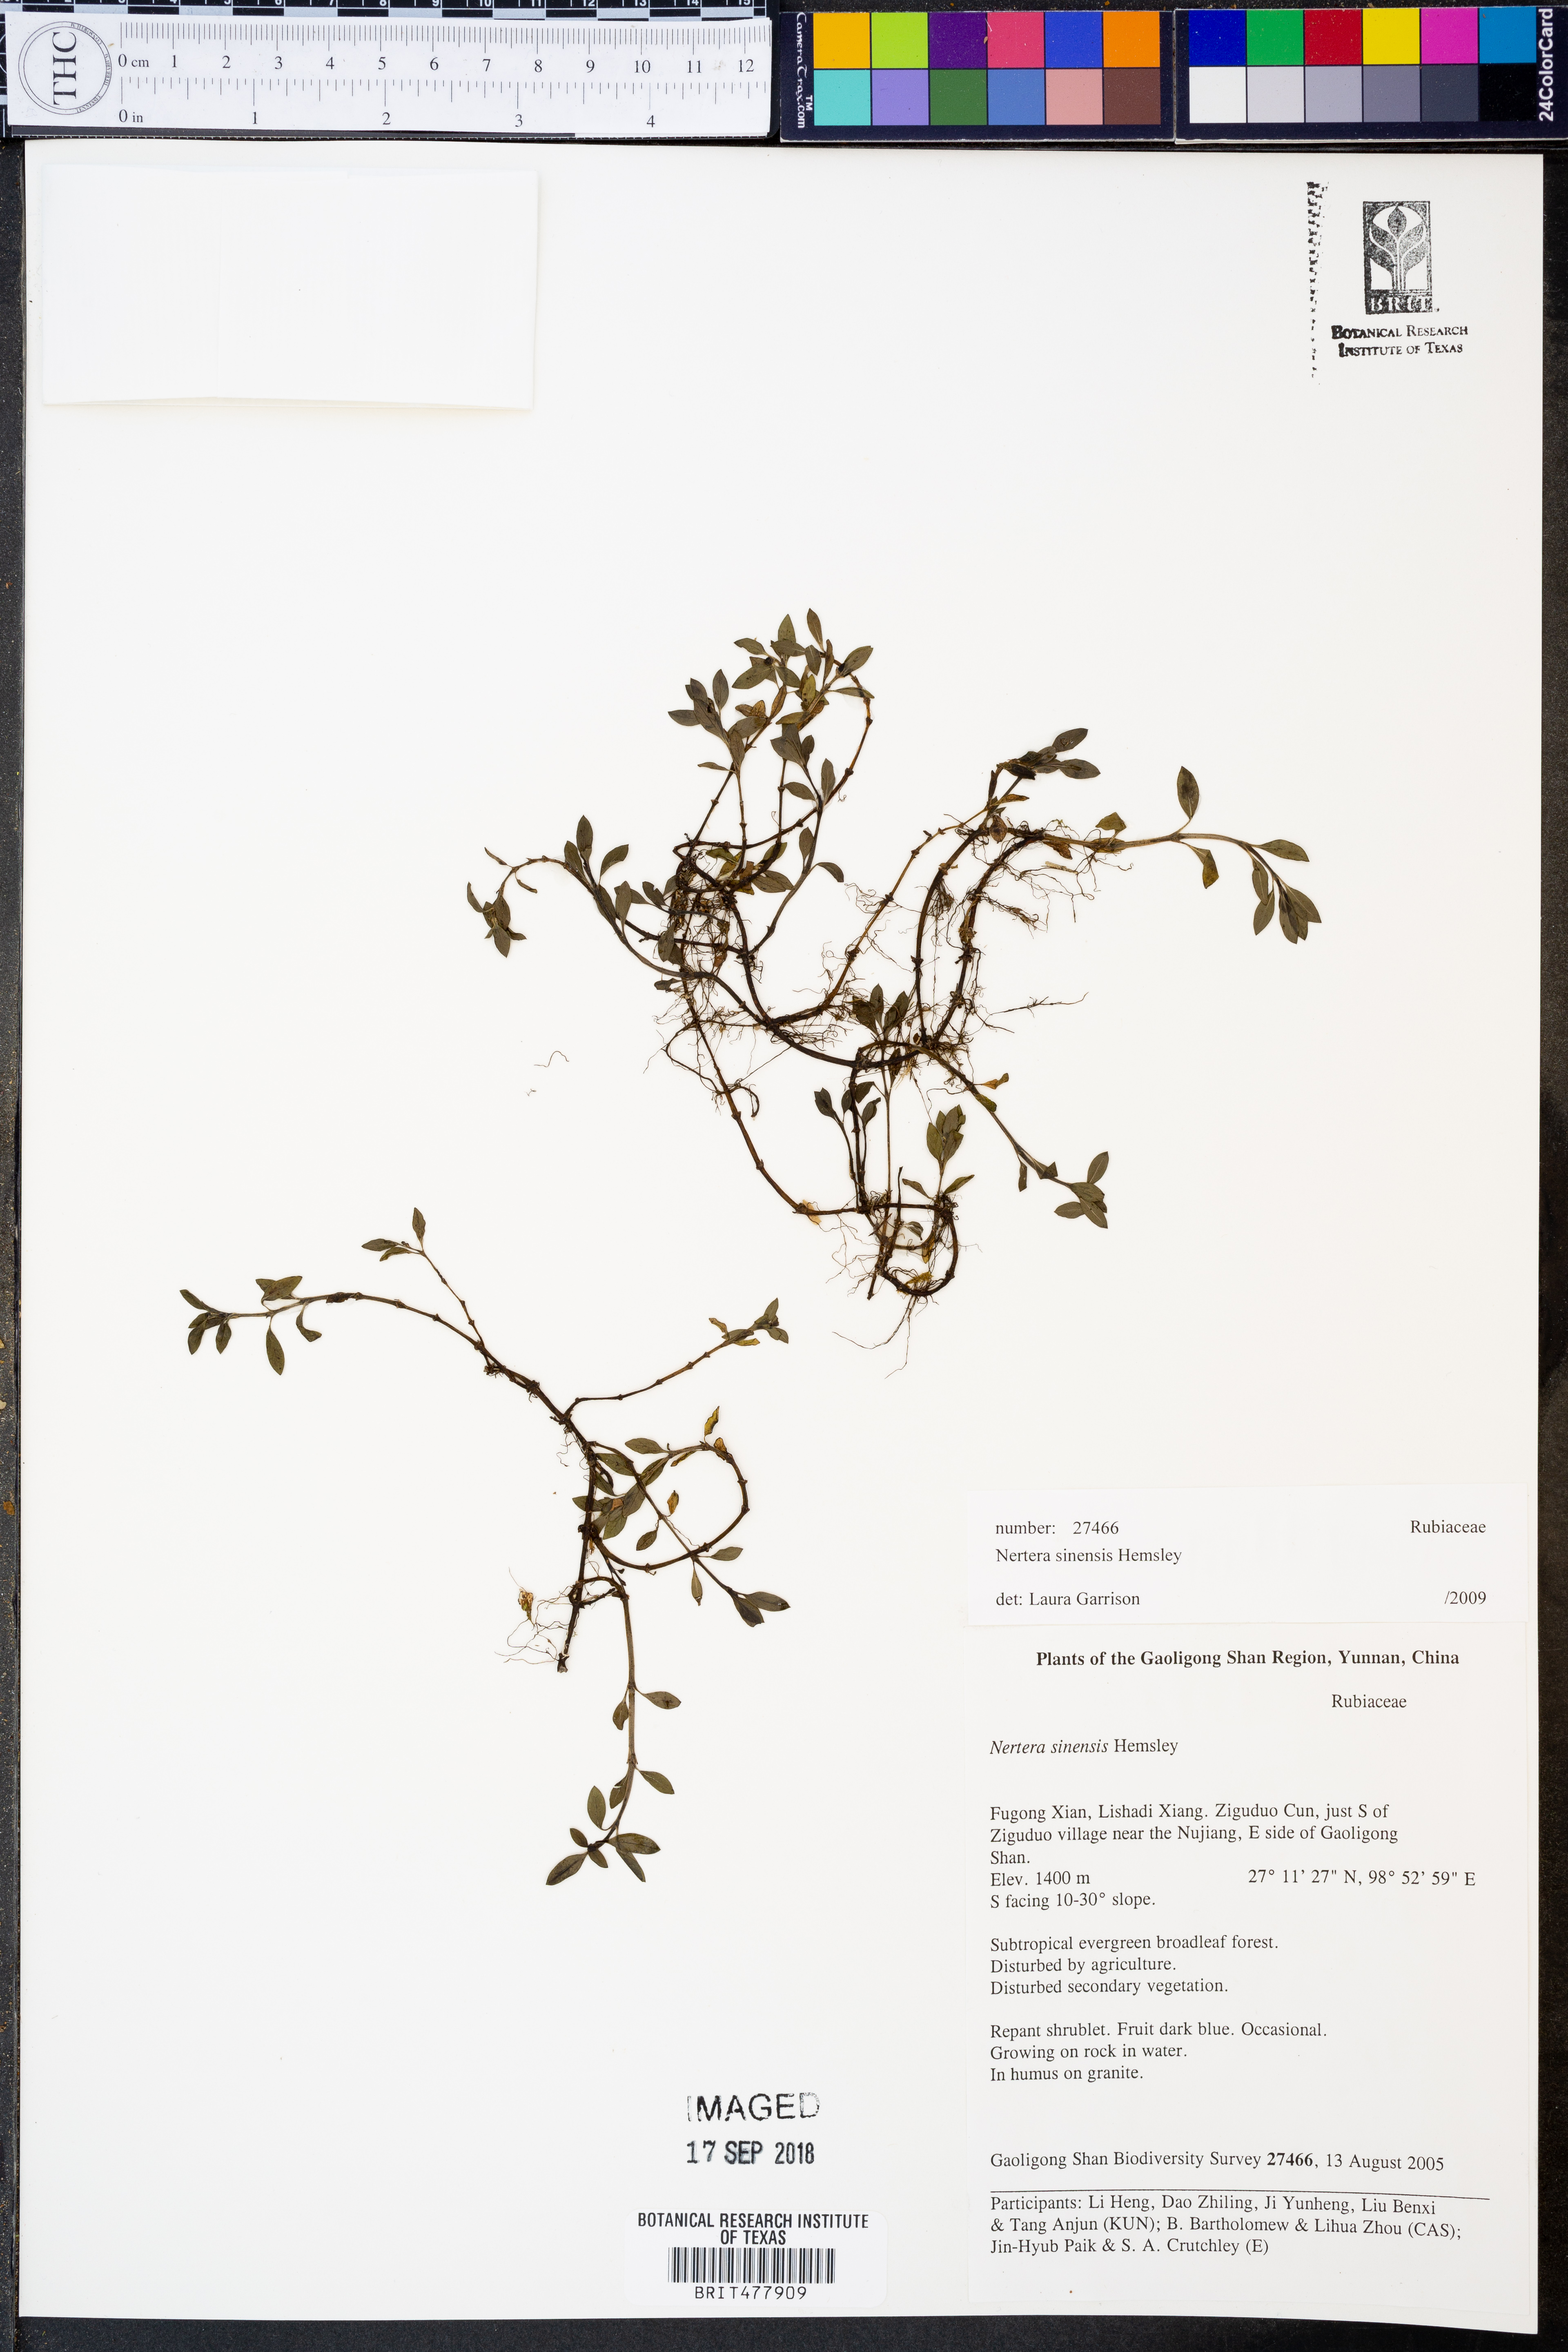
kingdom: Plantae
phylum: Tracheophyta
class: Magnoliopsida
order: Gentianales
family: Rubiaceae
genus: Nertera
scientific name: Nertera sinensis
